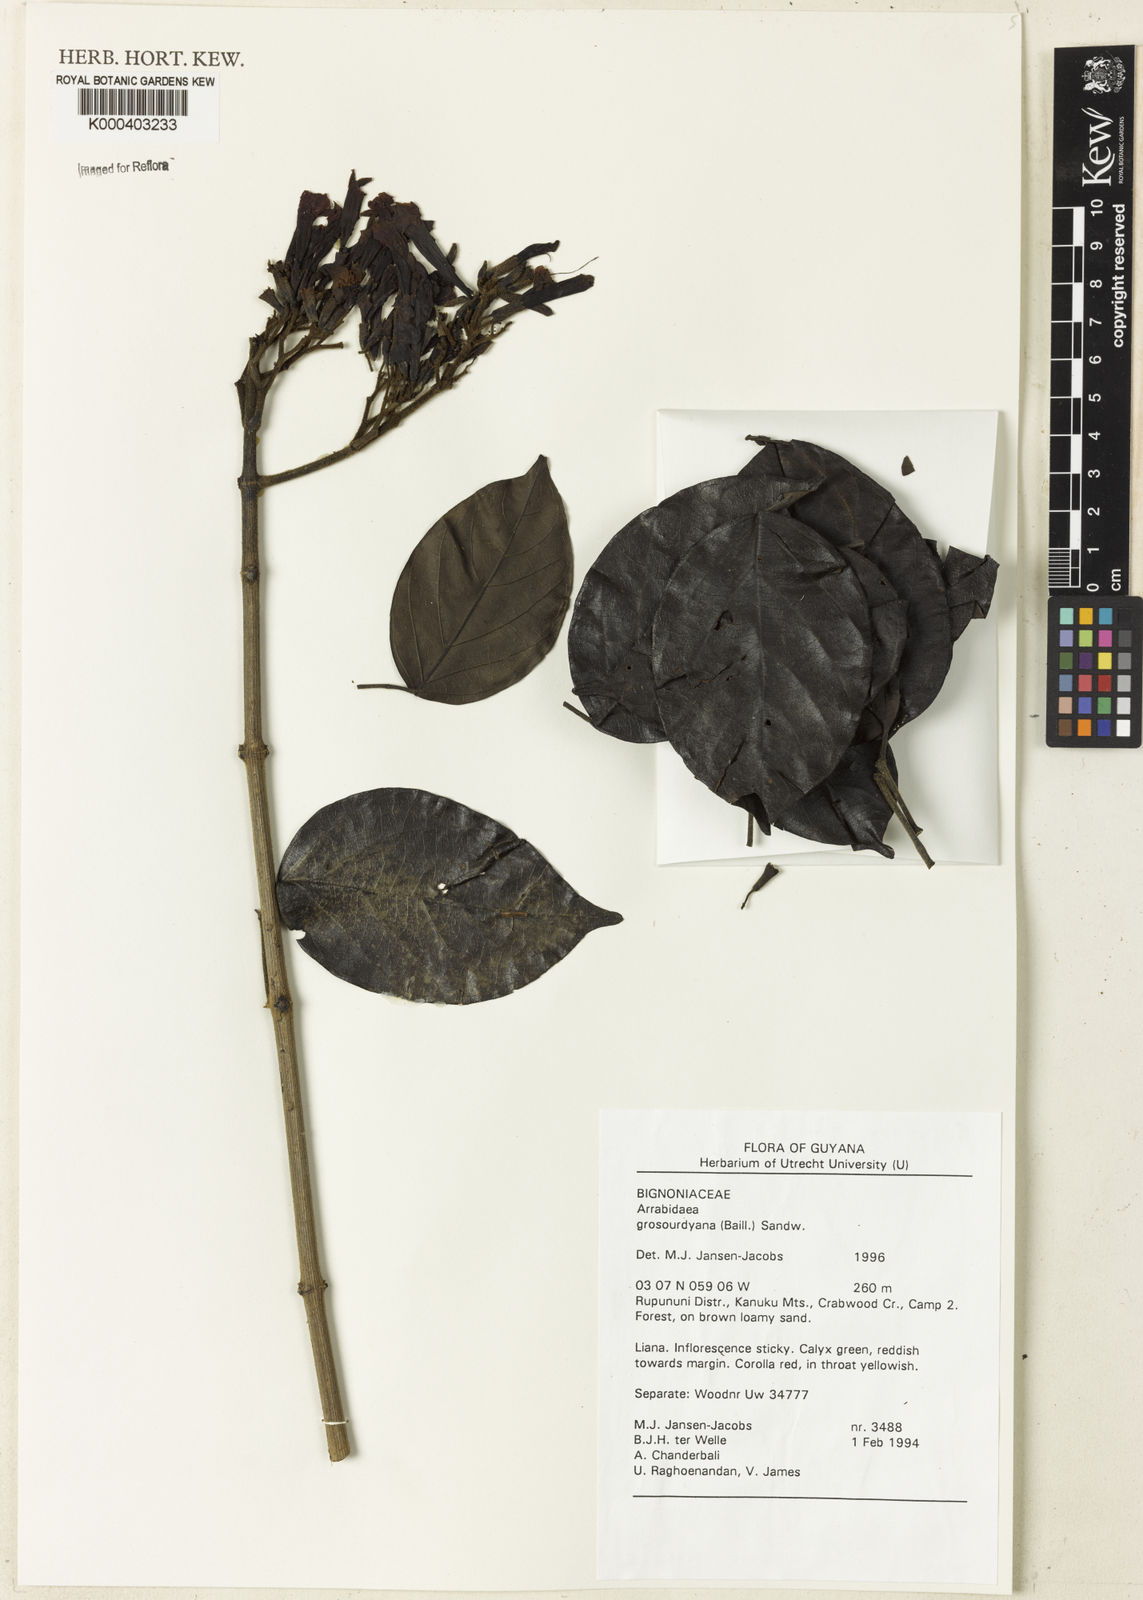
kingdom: Plantae
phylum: Tracheophyta
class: Magnoliopsida
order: Lamiales
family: Bignoniaceae
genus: Fridericia
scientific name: Fridericia grosourdyana
